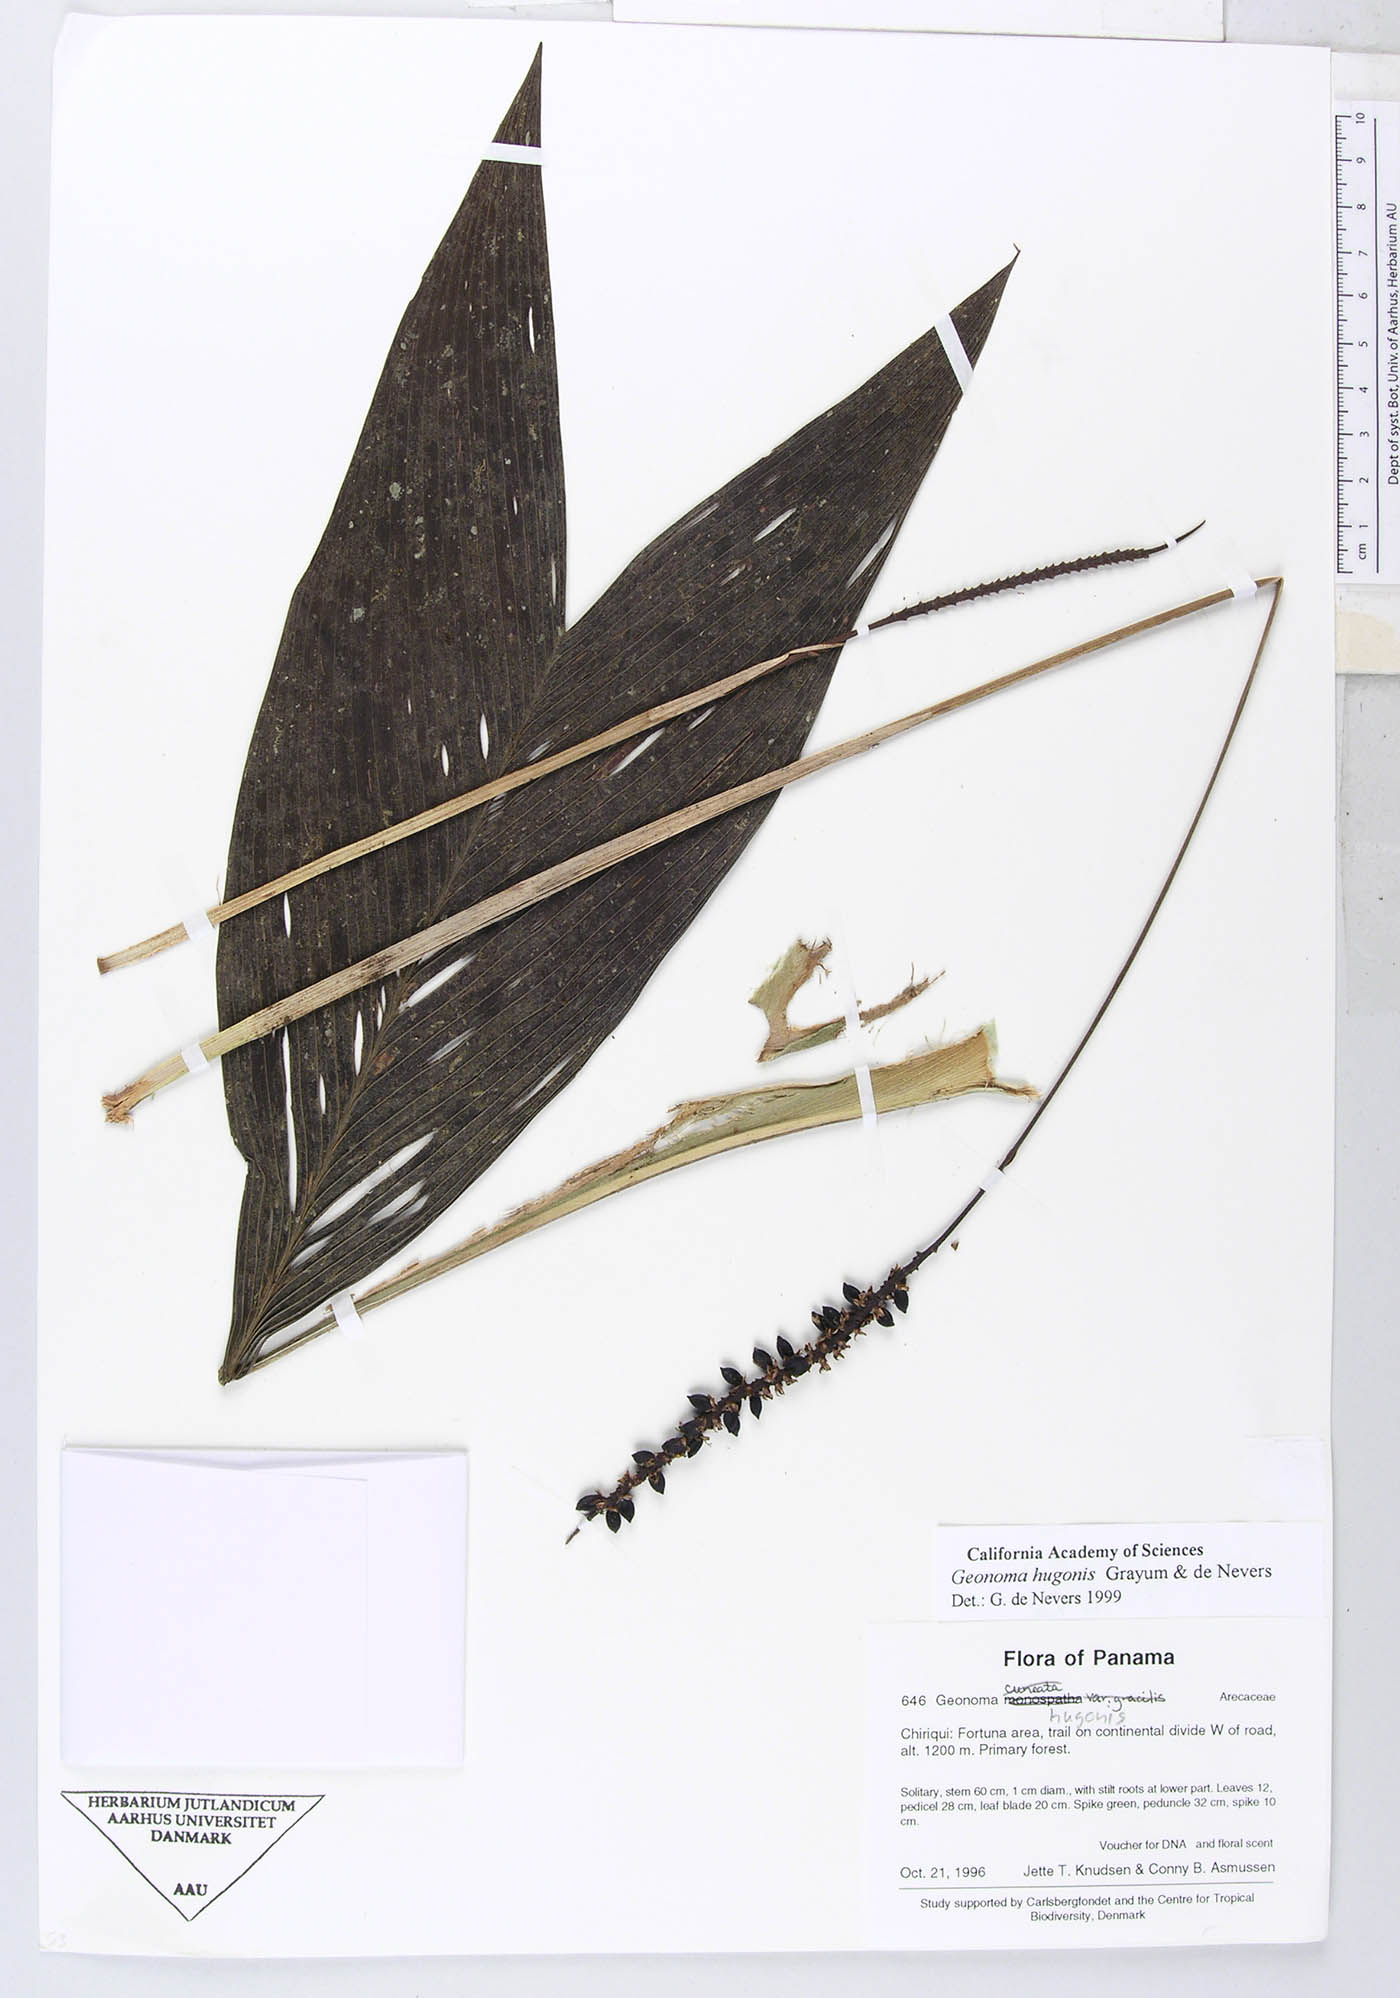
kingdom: Plantae
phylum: Tracheophyta
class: Liliopsida
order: Arecales
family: Arecaceae
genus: Geonoma
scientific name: Geonoma hugonis
